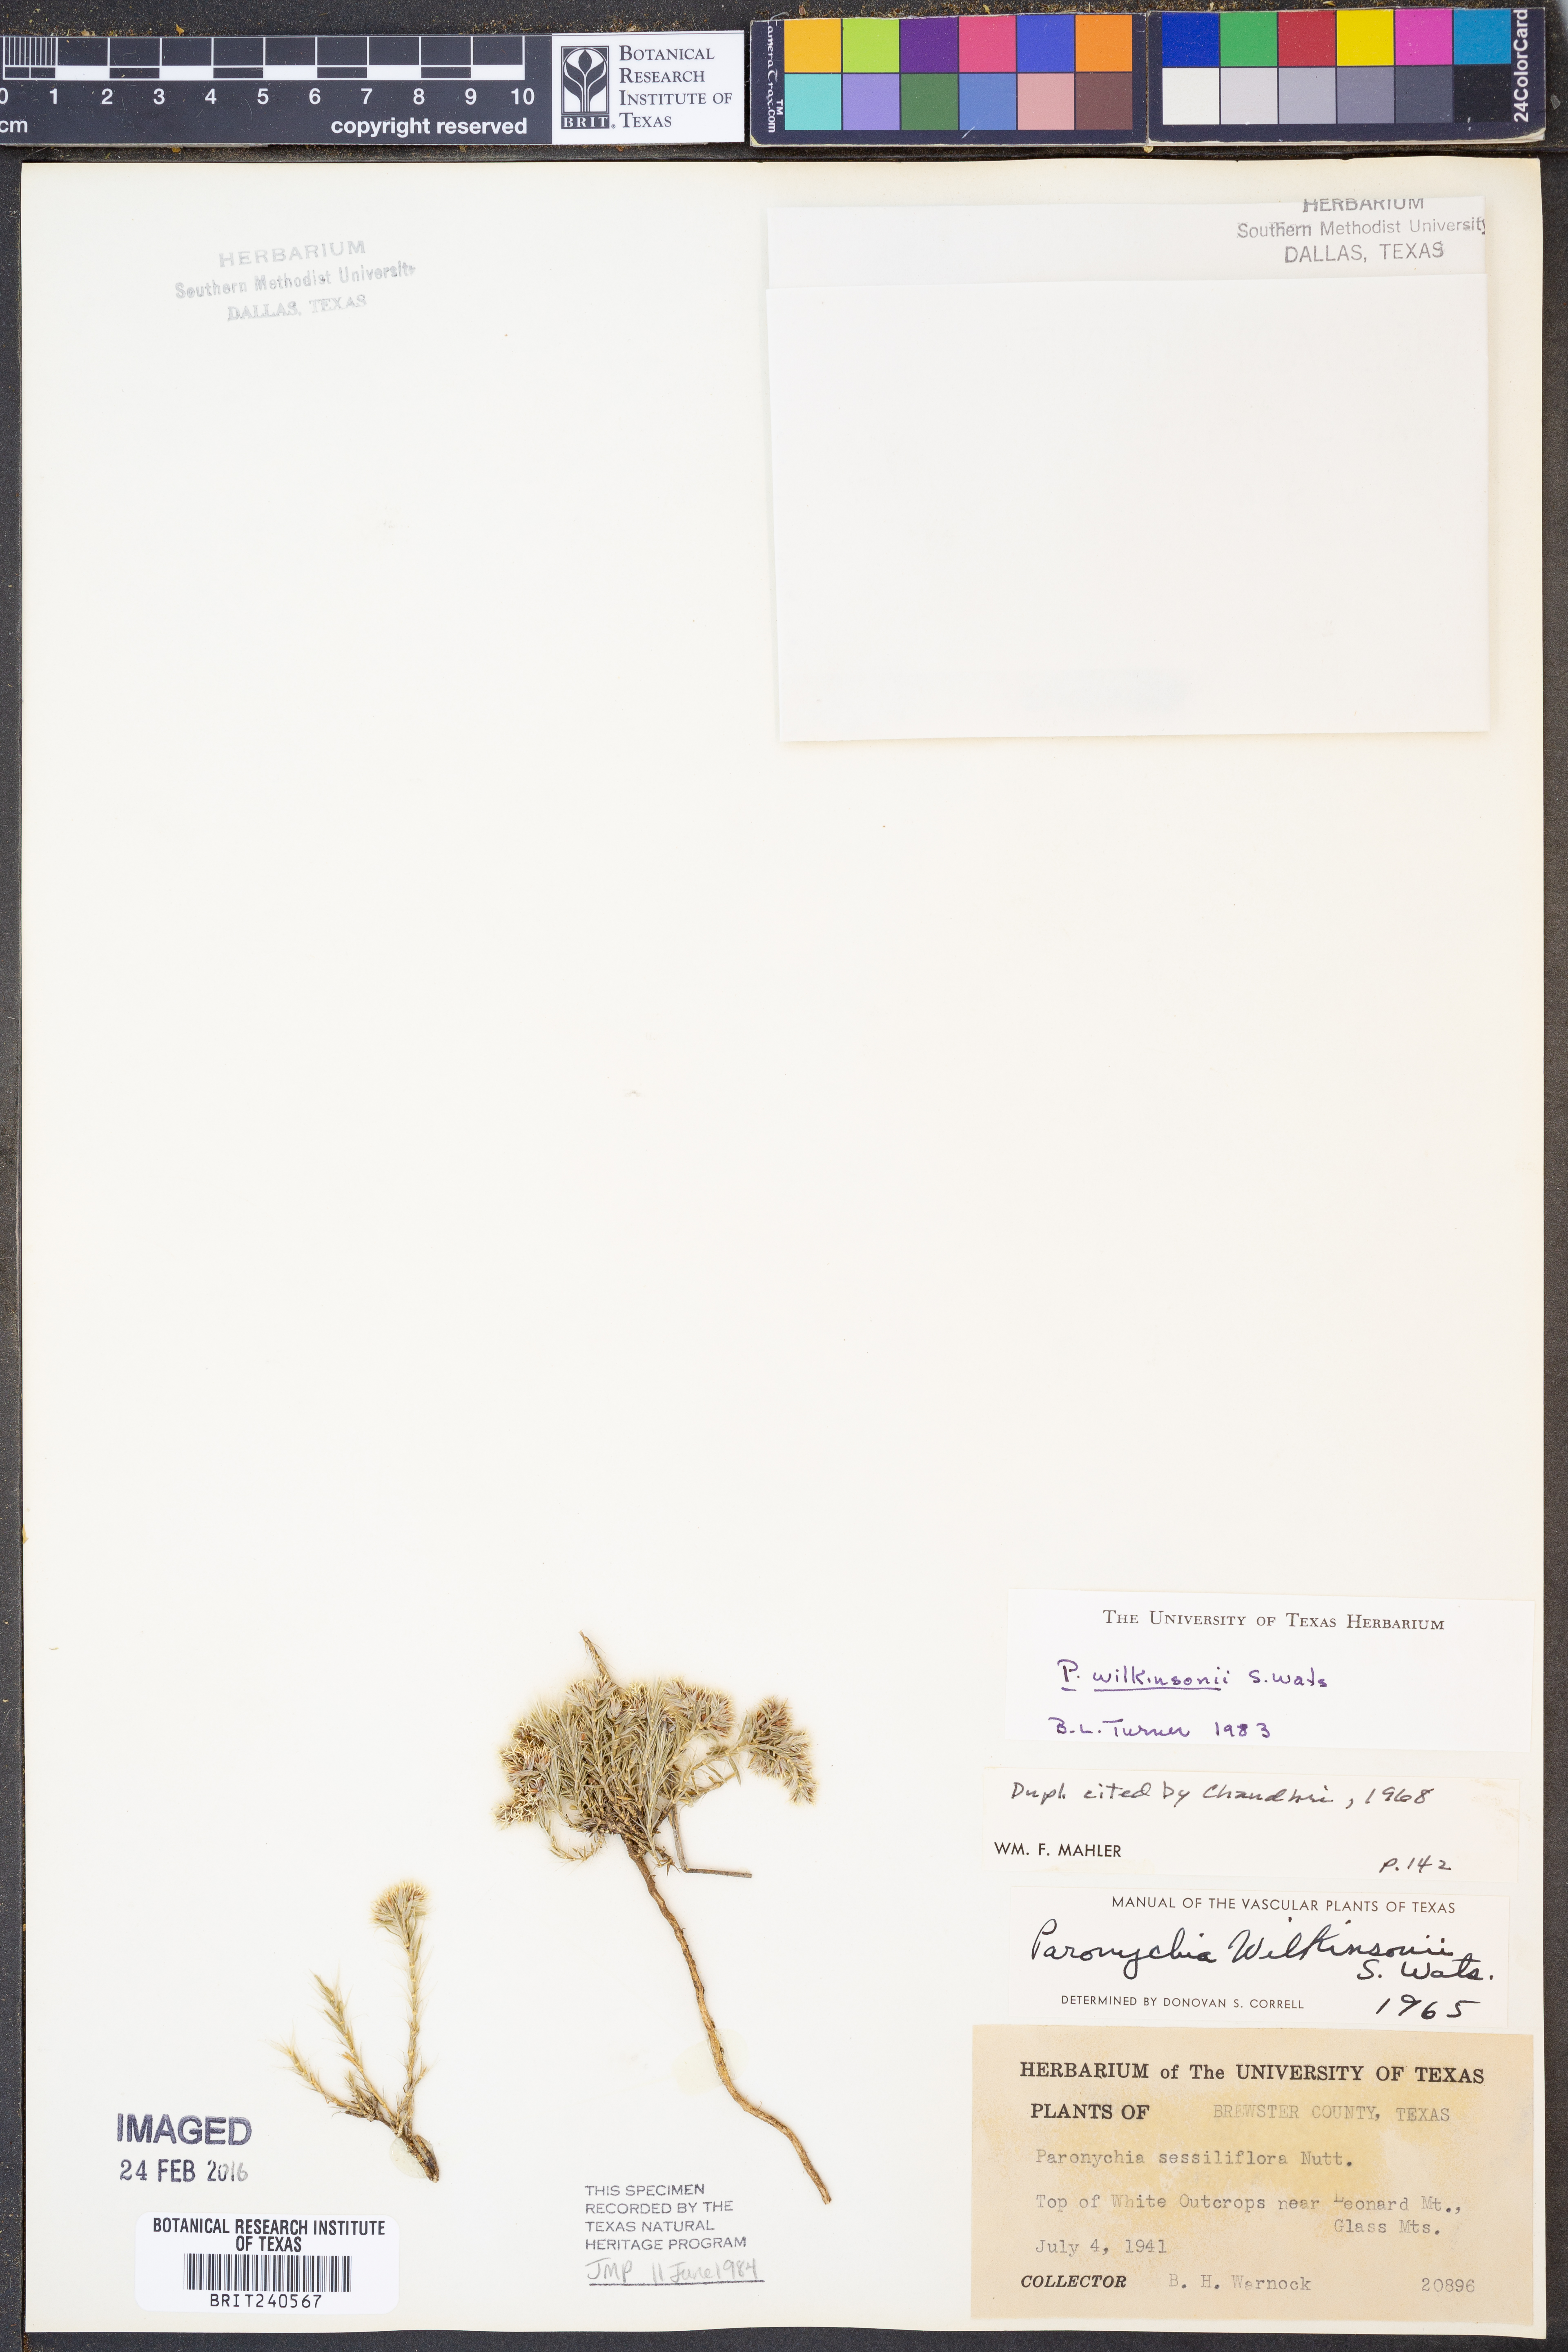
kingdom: Plantae
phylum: Tracheophyta
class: Magnoliopsida
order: Caryophyllales
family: Caryophyllaceae
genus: Paronychia
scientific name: Paronychia wilkinsonii
